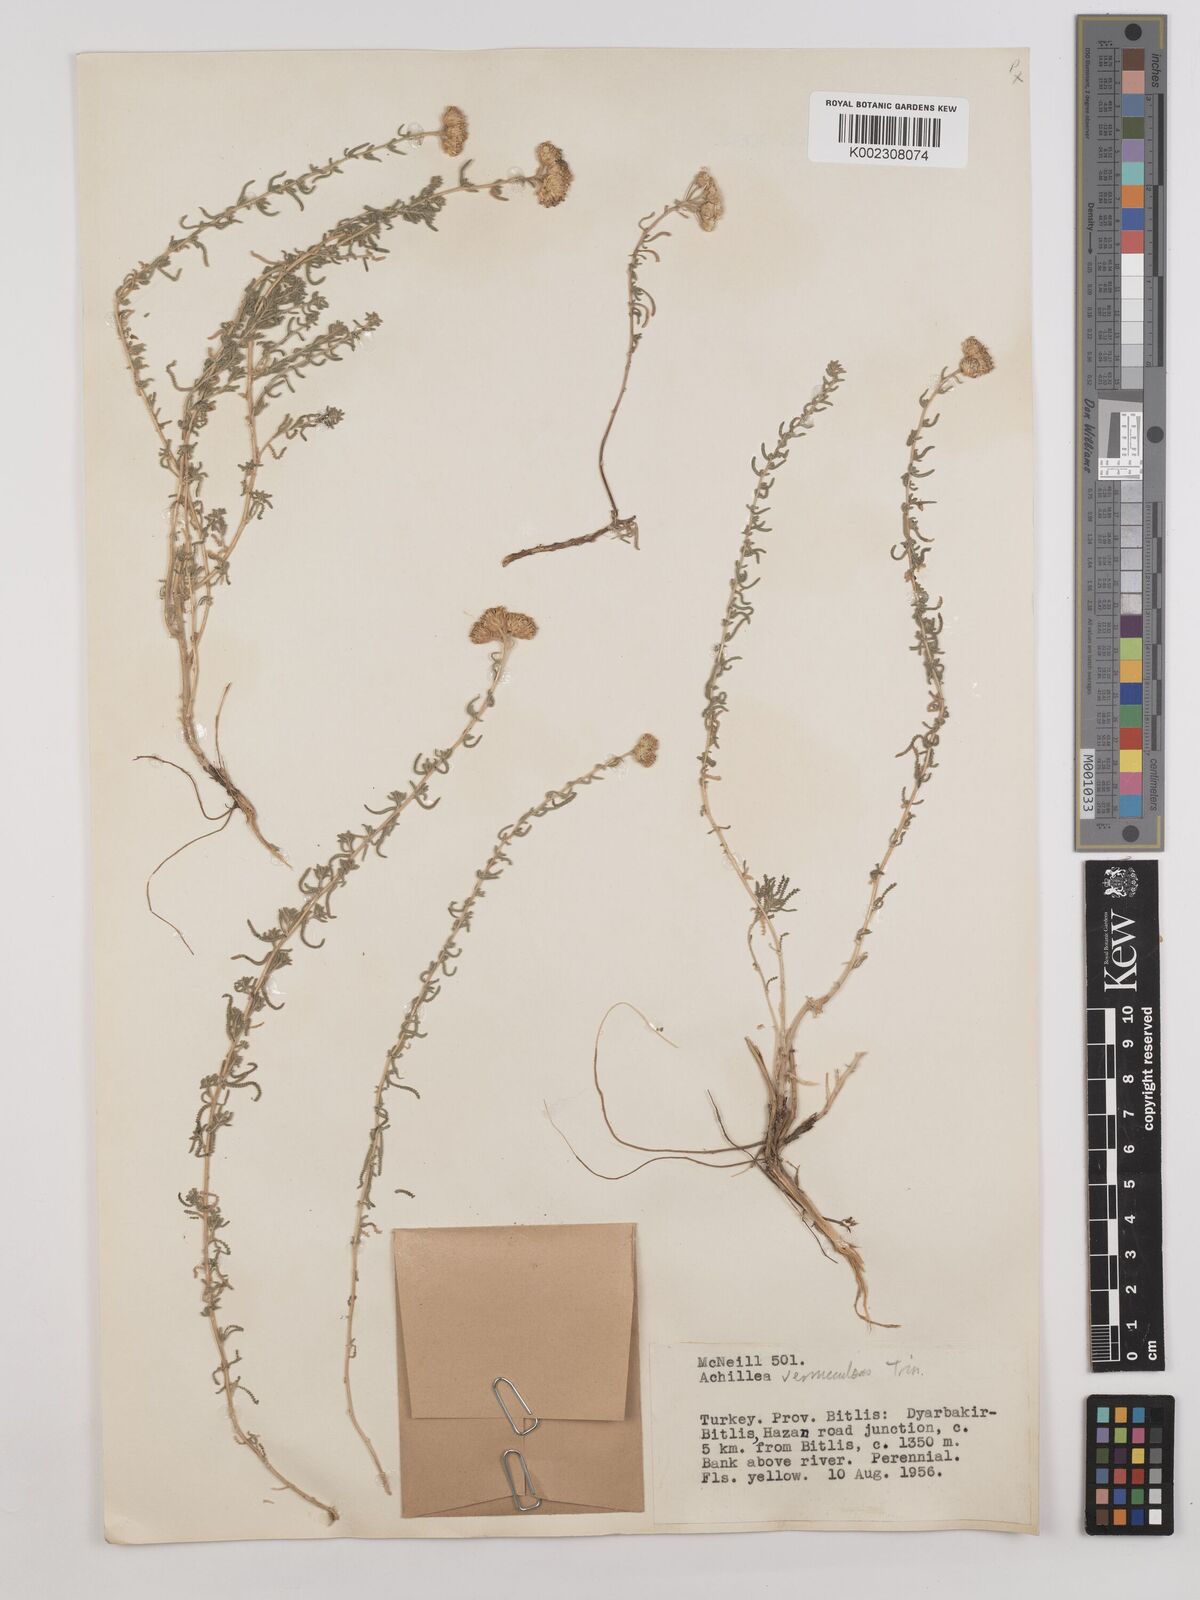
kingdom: Plantae
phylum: Tracheophyta
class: Magnoliopsida
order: Asterales
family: Asteraceae
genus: Achillea
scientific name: Achillea vermicularis
